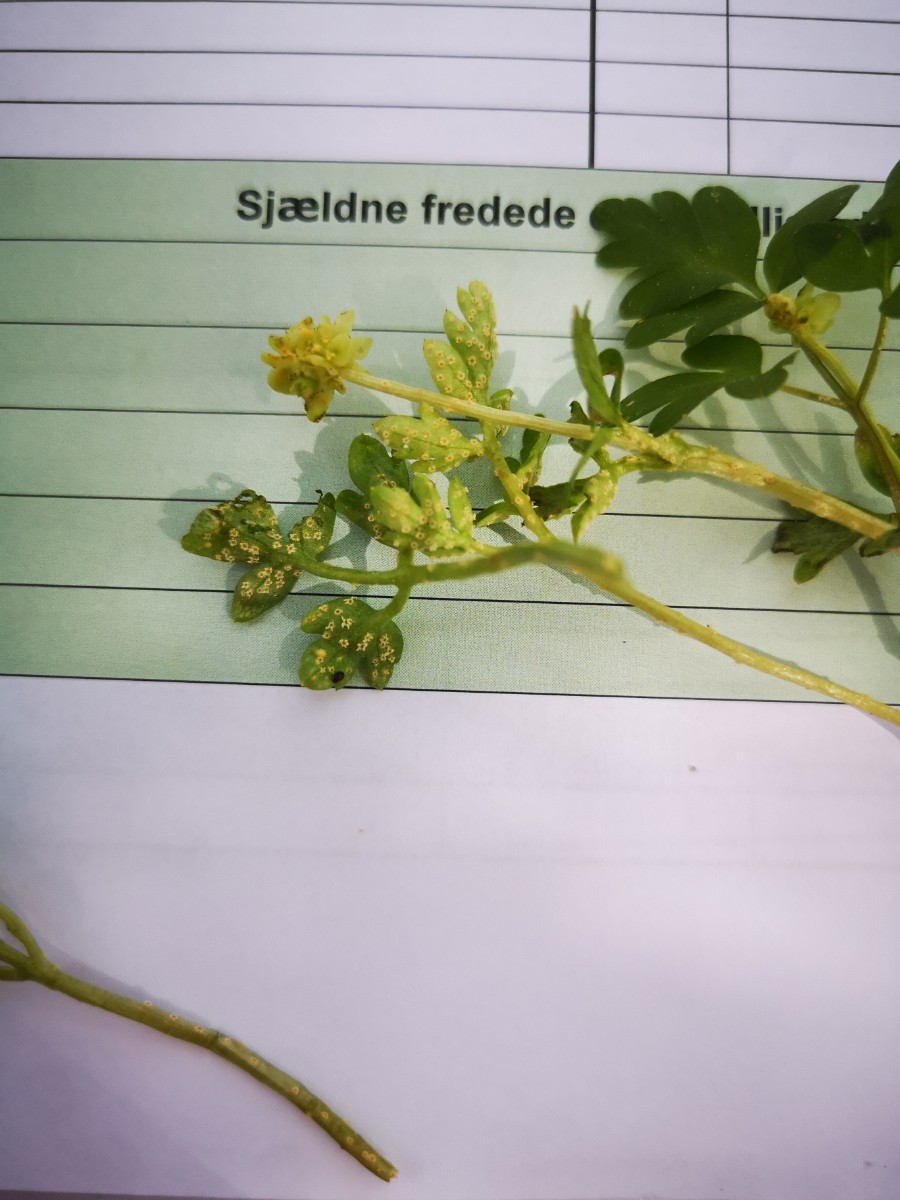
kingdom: Fungi
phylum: Basidiomycota
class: Pucciniomycetes
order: Pucciniales
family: Pucciniaceae
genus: Puccinia
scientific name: Puccinia albescens
